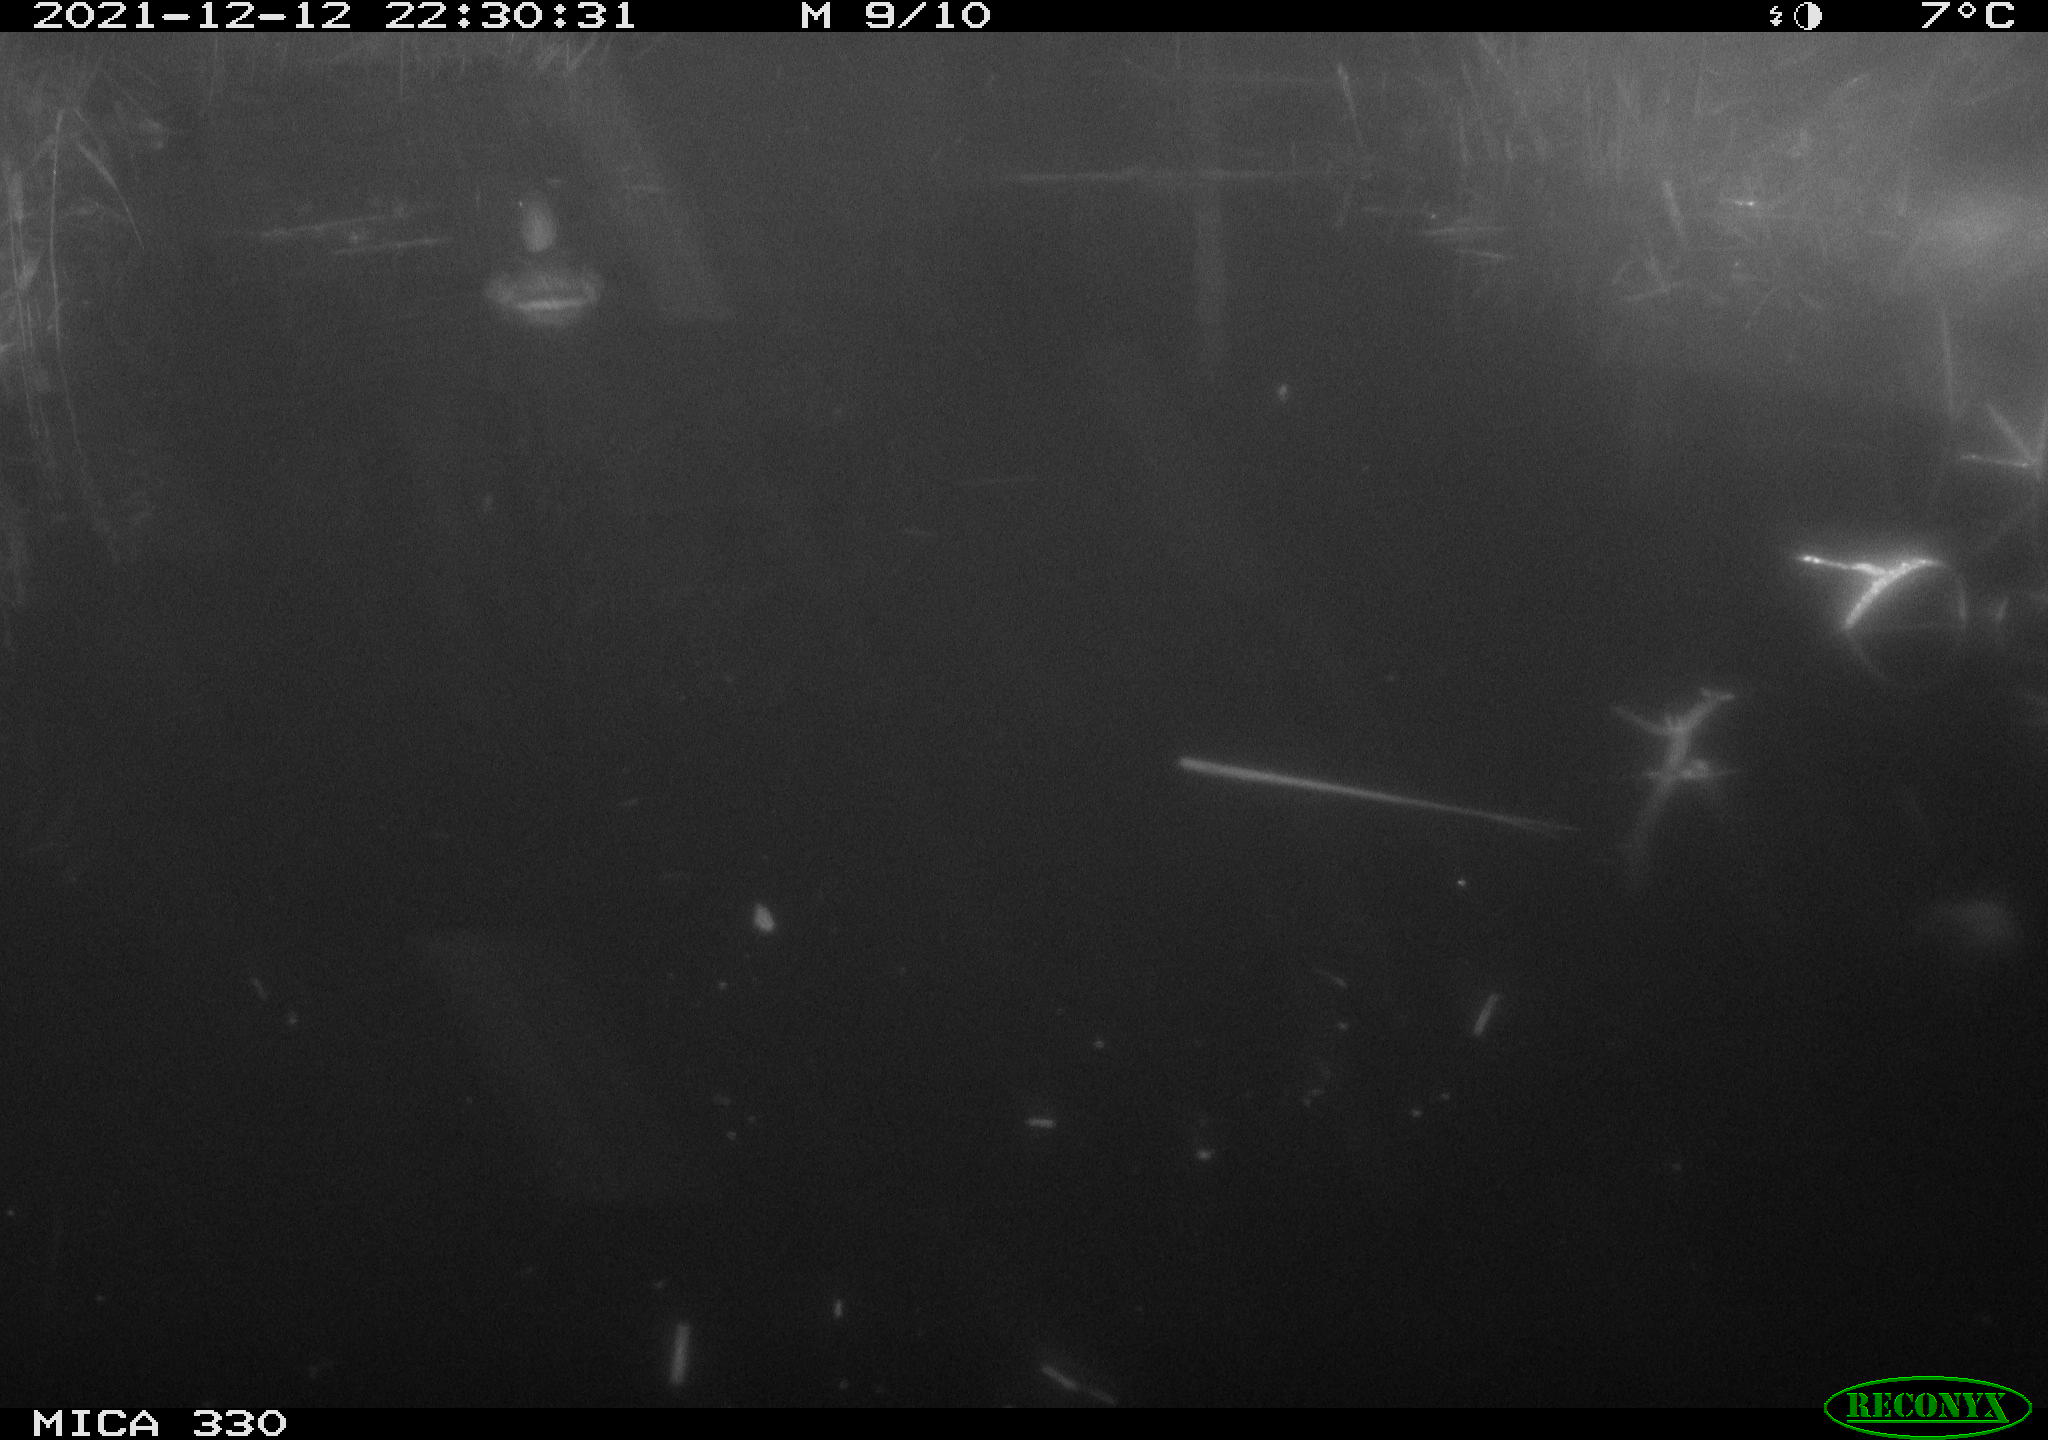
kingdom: Animalia
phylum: Chordata
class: Aves
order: Anseriformes
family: Anatidae
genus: Anas
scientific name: Anas platyrhynchos
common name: Mallard
